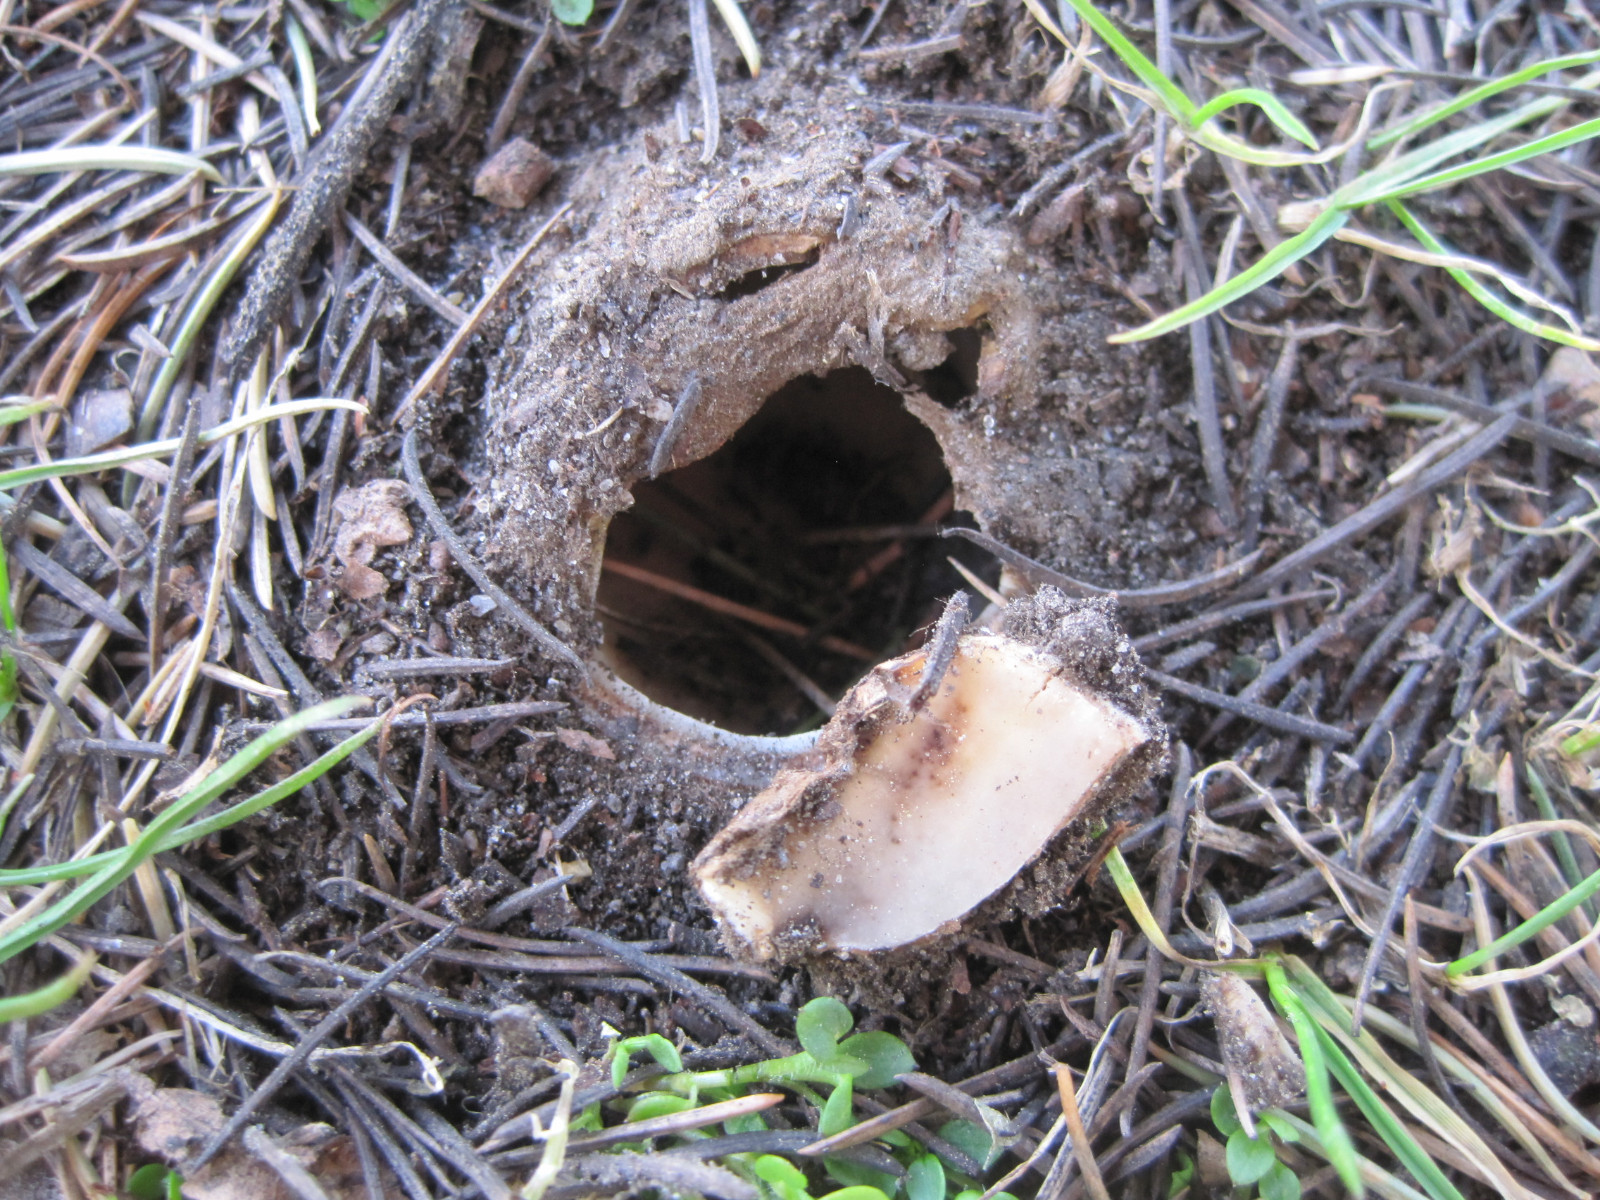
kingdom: Fungi
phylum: Ascomycota
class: Pezizomycetes
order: Pezizales
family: Pyronemataceae
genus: Geopora
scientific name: Geopora sumneriana
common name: vår-jordbæger
